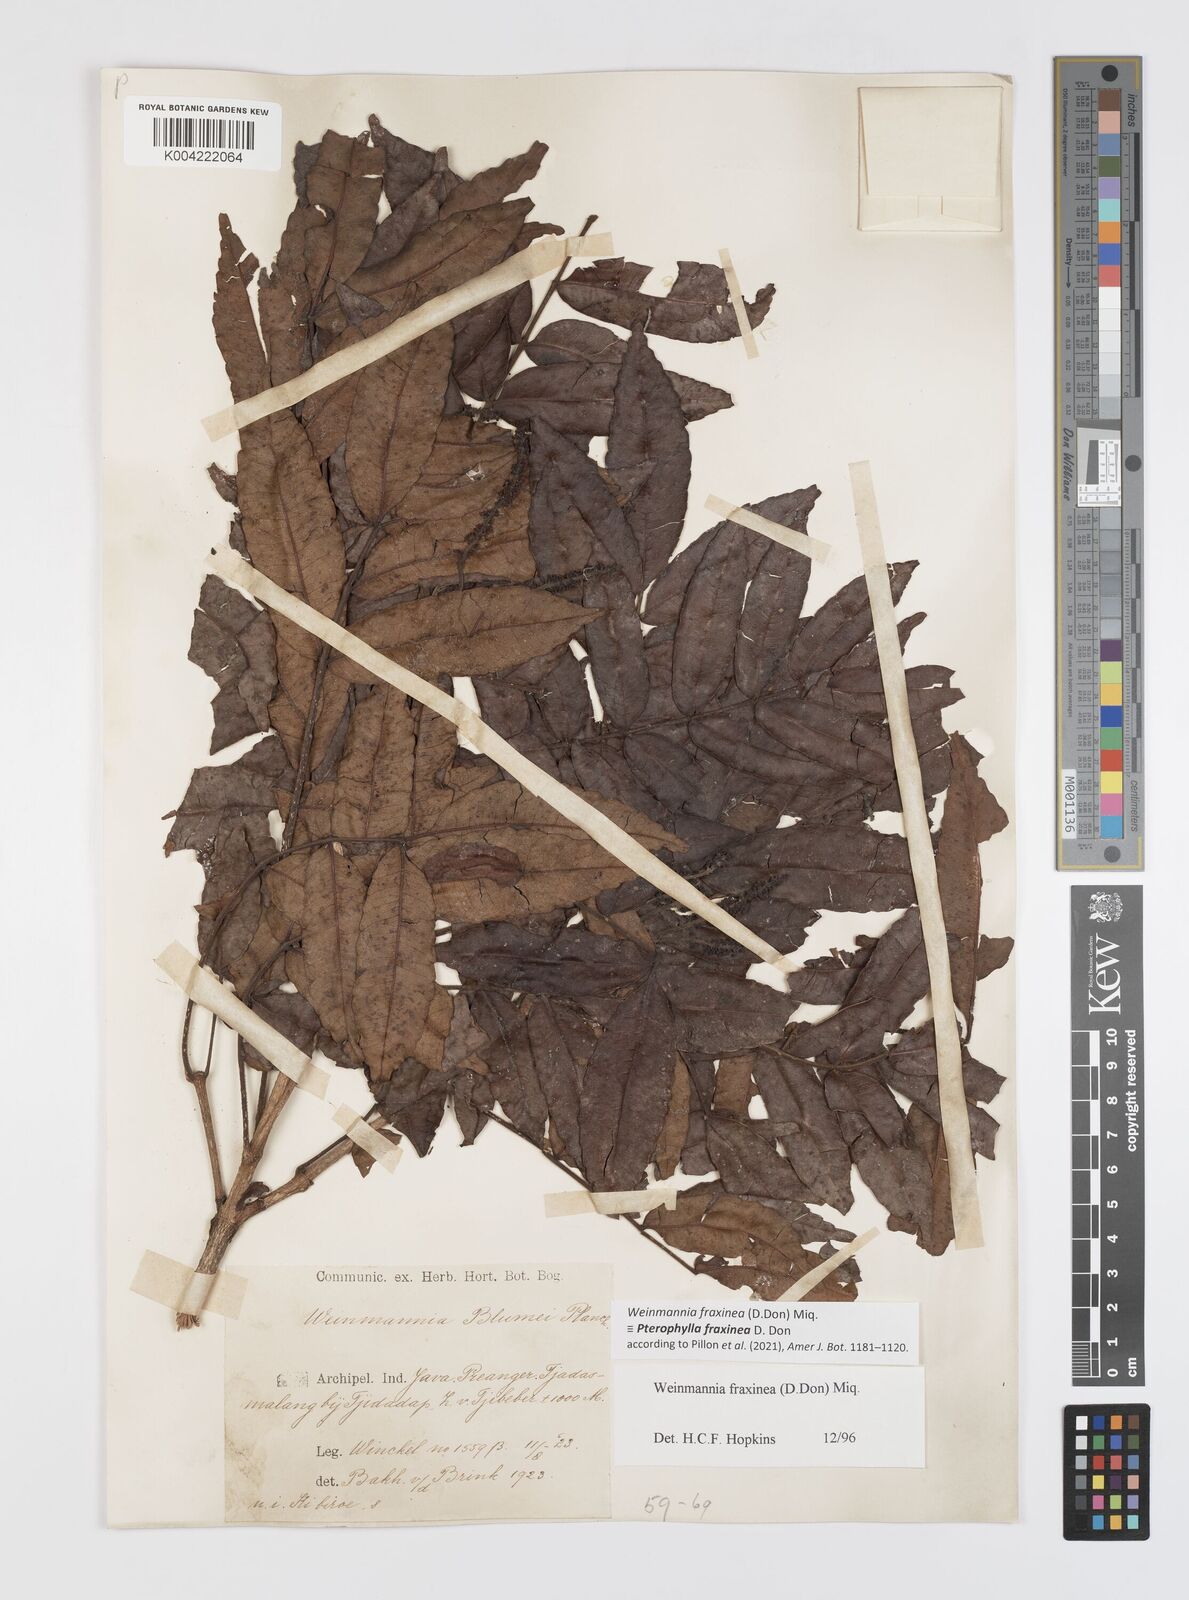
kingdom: Plantae
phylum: Tracheophyta
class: Magnoliopsida
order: Oxalidales
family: Cunoniaceae
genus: Pterophylla
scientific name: Pterophylla fraxinea
